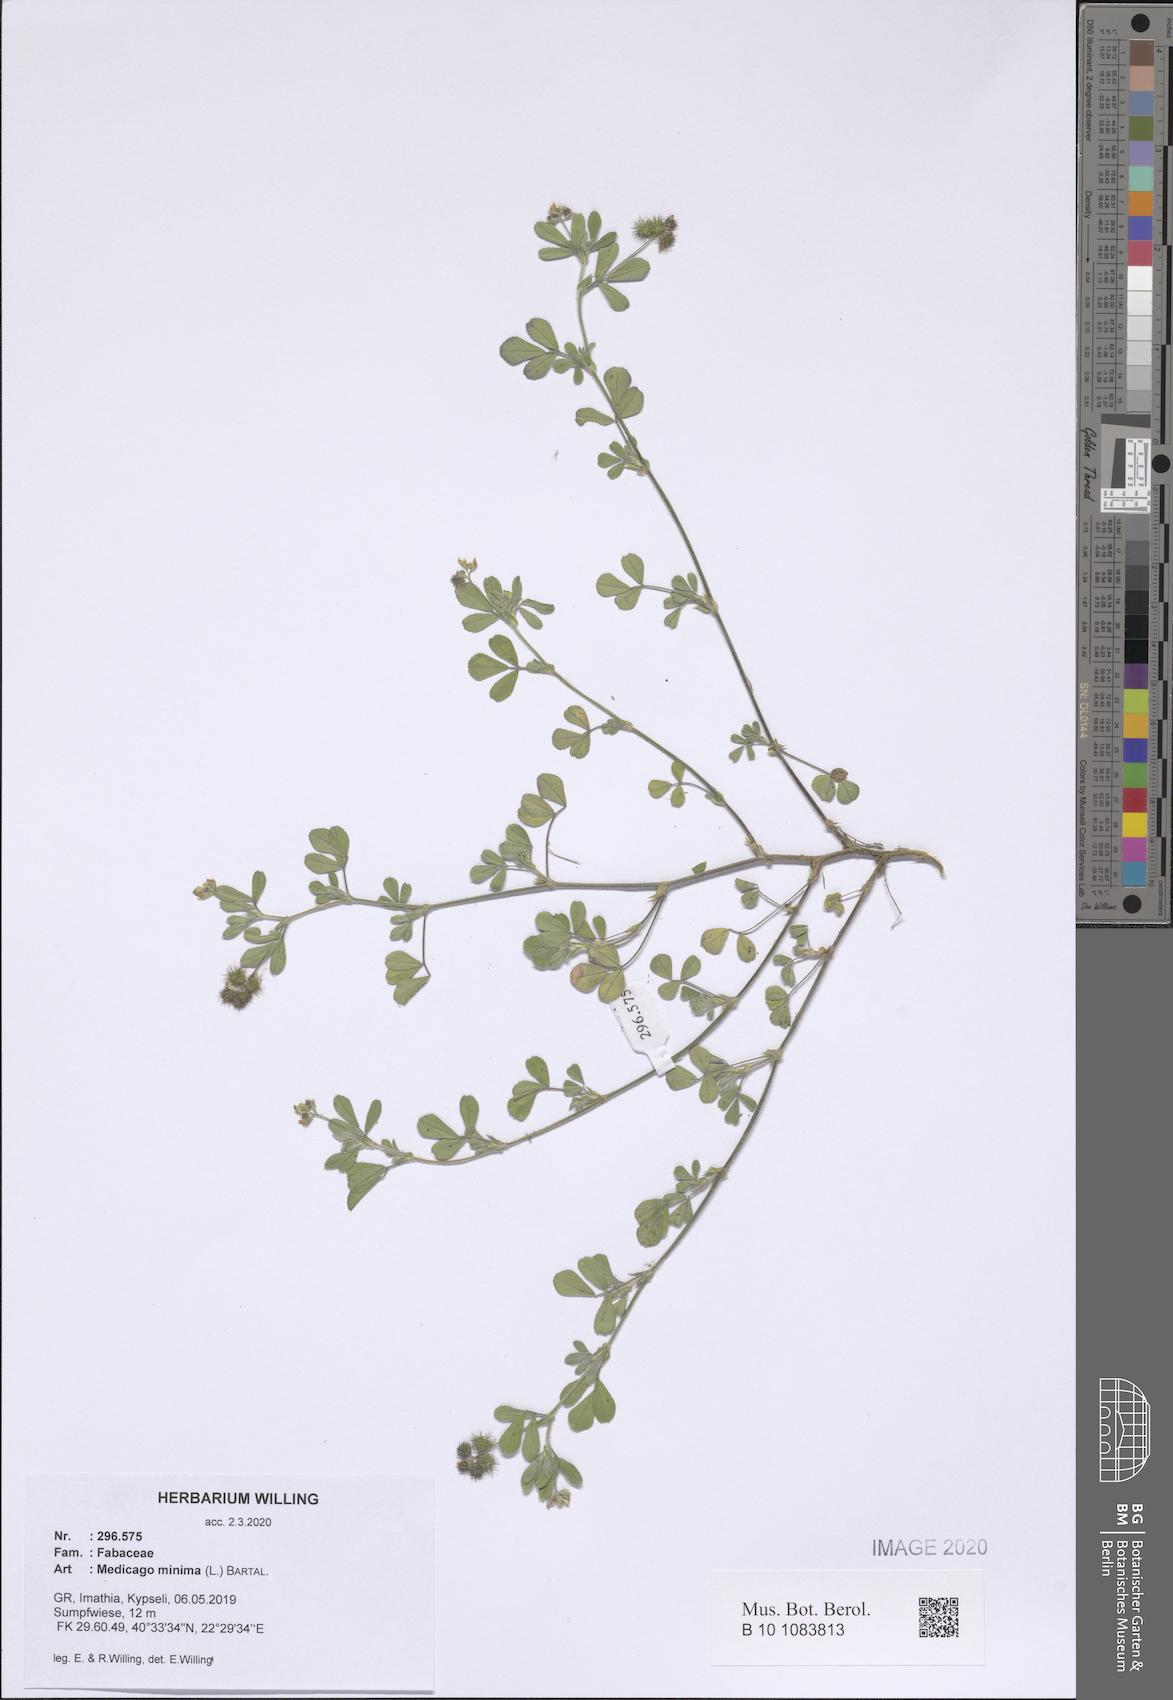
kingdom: Plantae
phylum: Tracheophyta
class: Magnoliopsida
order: Fabales
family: Fabaceae
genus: Medicago
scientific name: Medicago minima
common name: Little bur-clover
